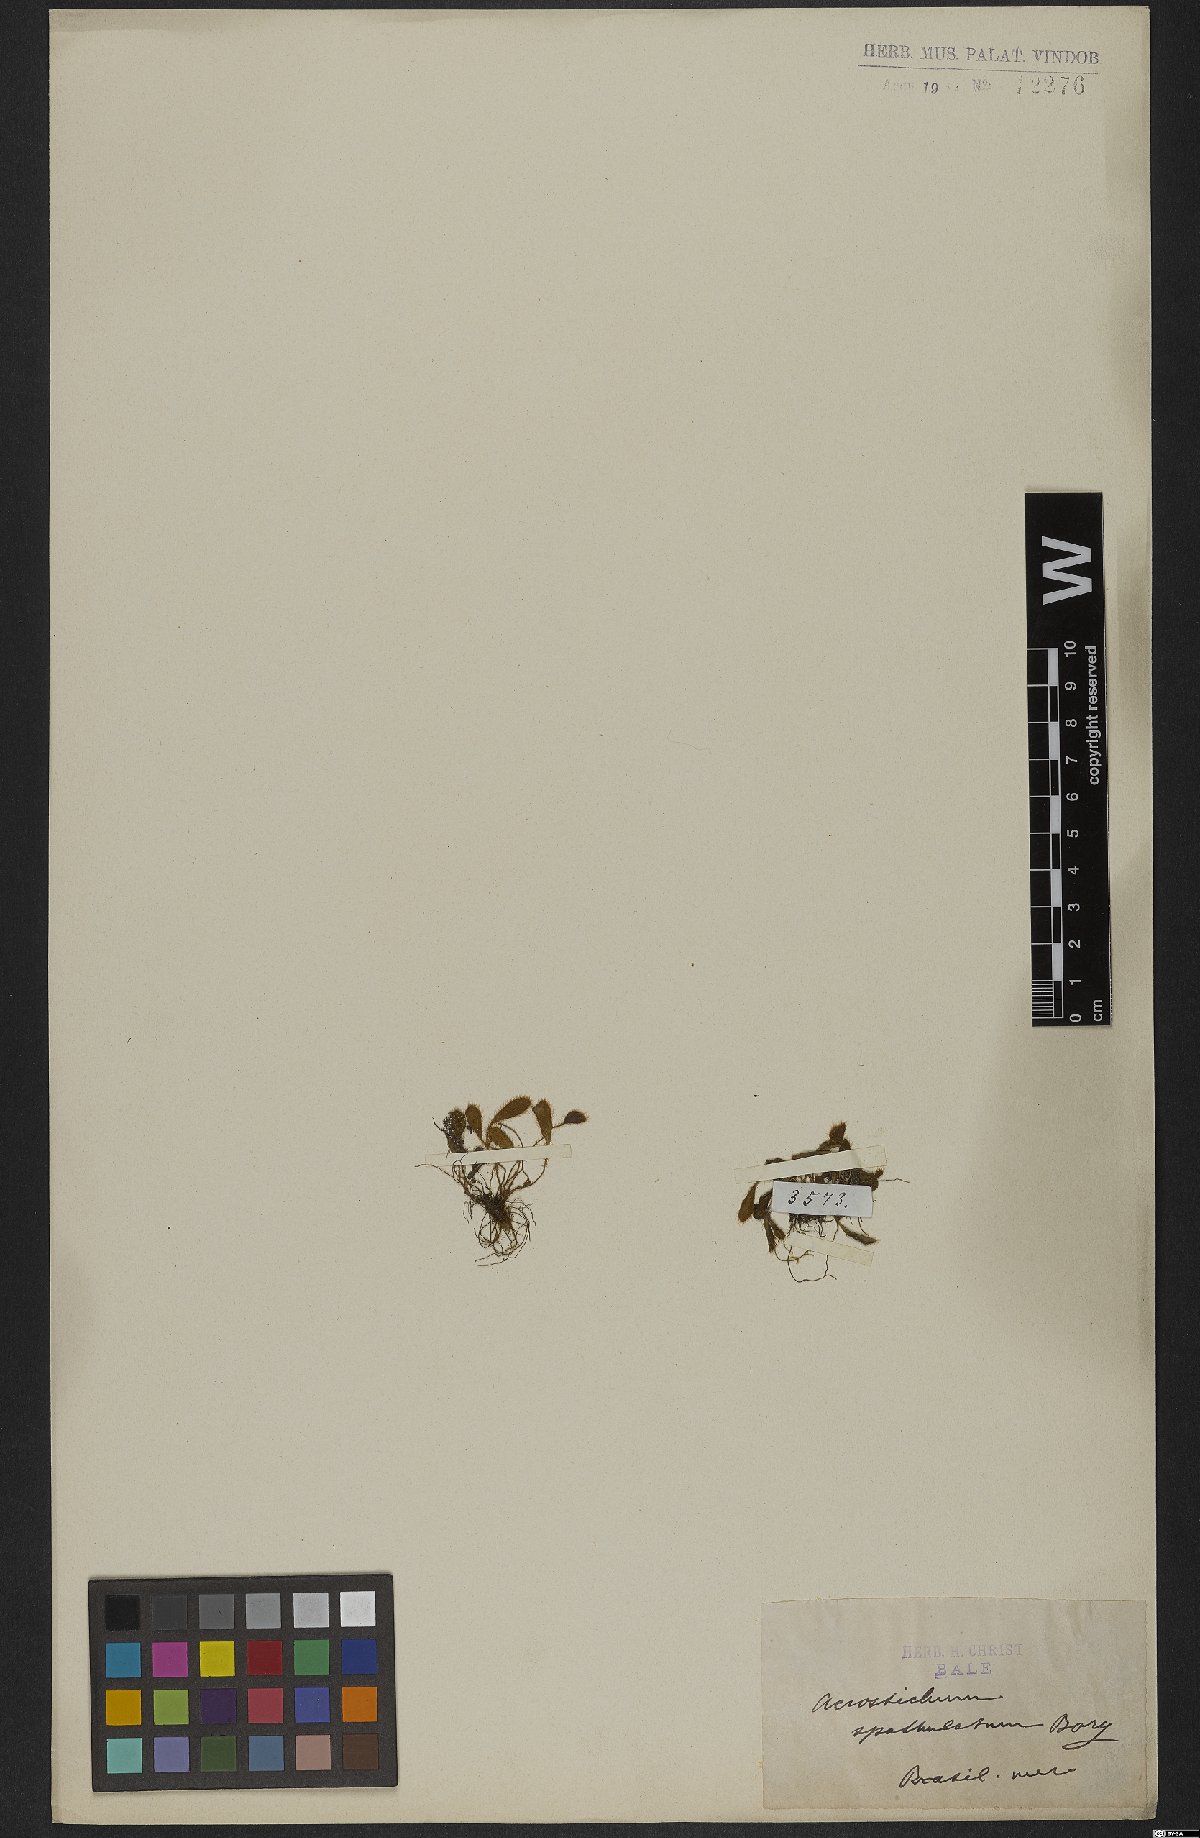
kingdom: Plantae
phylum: Tracheophyta
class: Polypodiopsida
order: Polypodiales
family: Dryopteridaceae
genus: Elaphoglossum
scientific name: Elaphoglossum spatulatum
